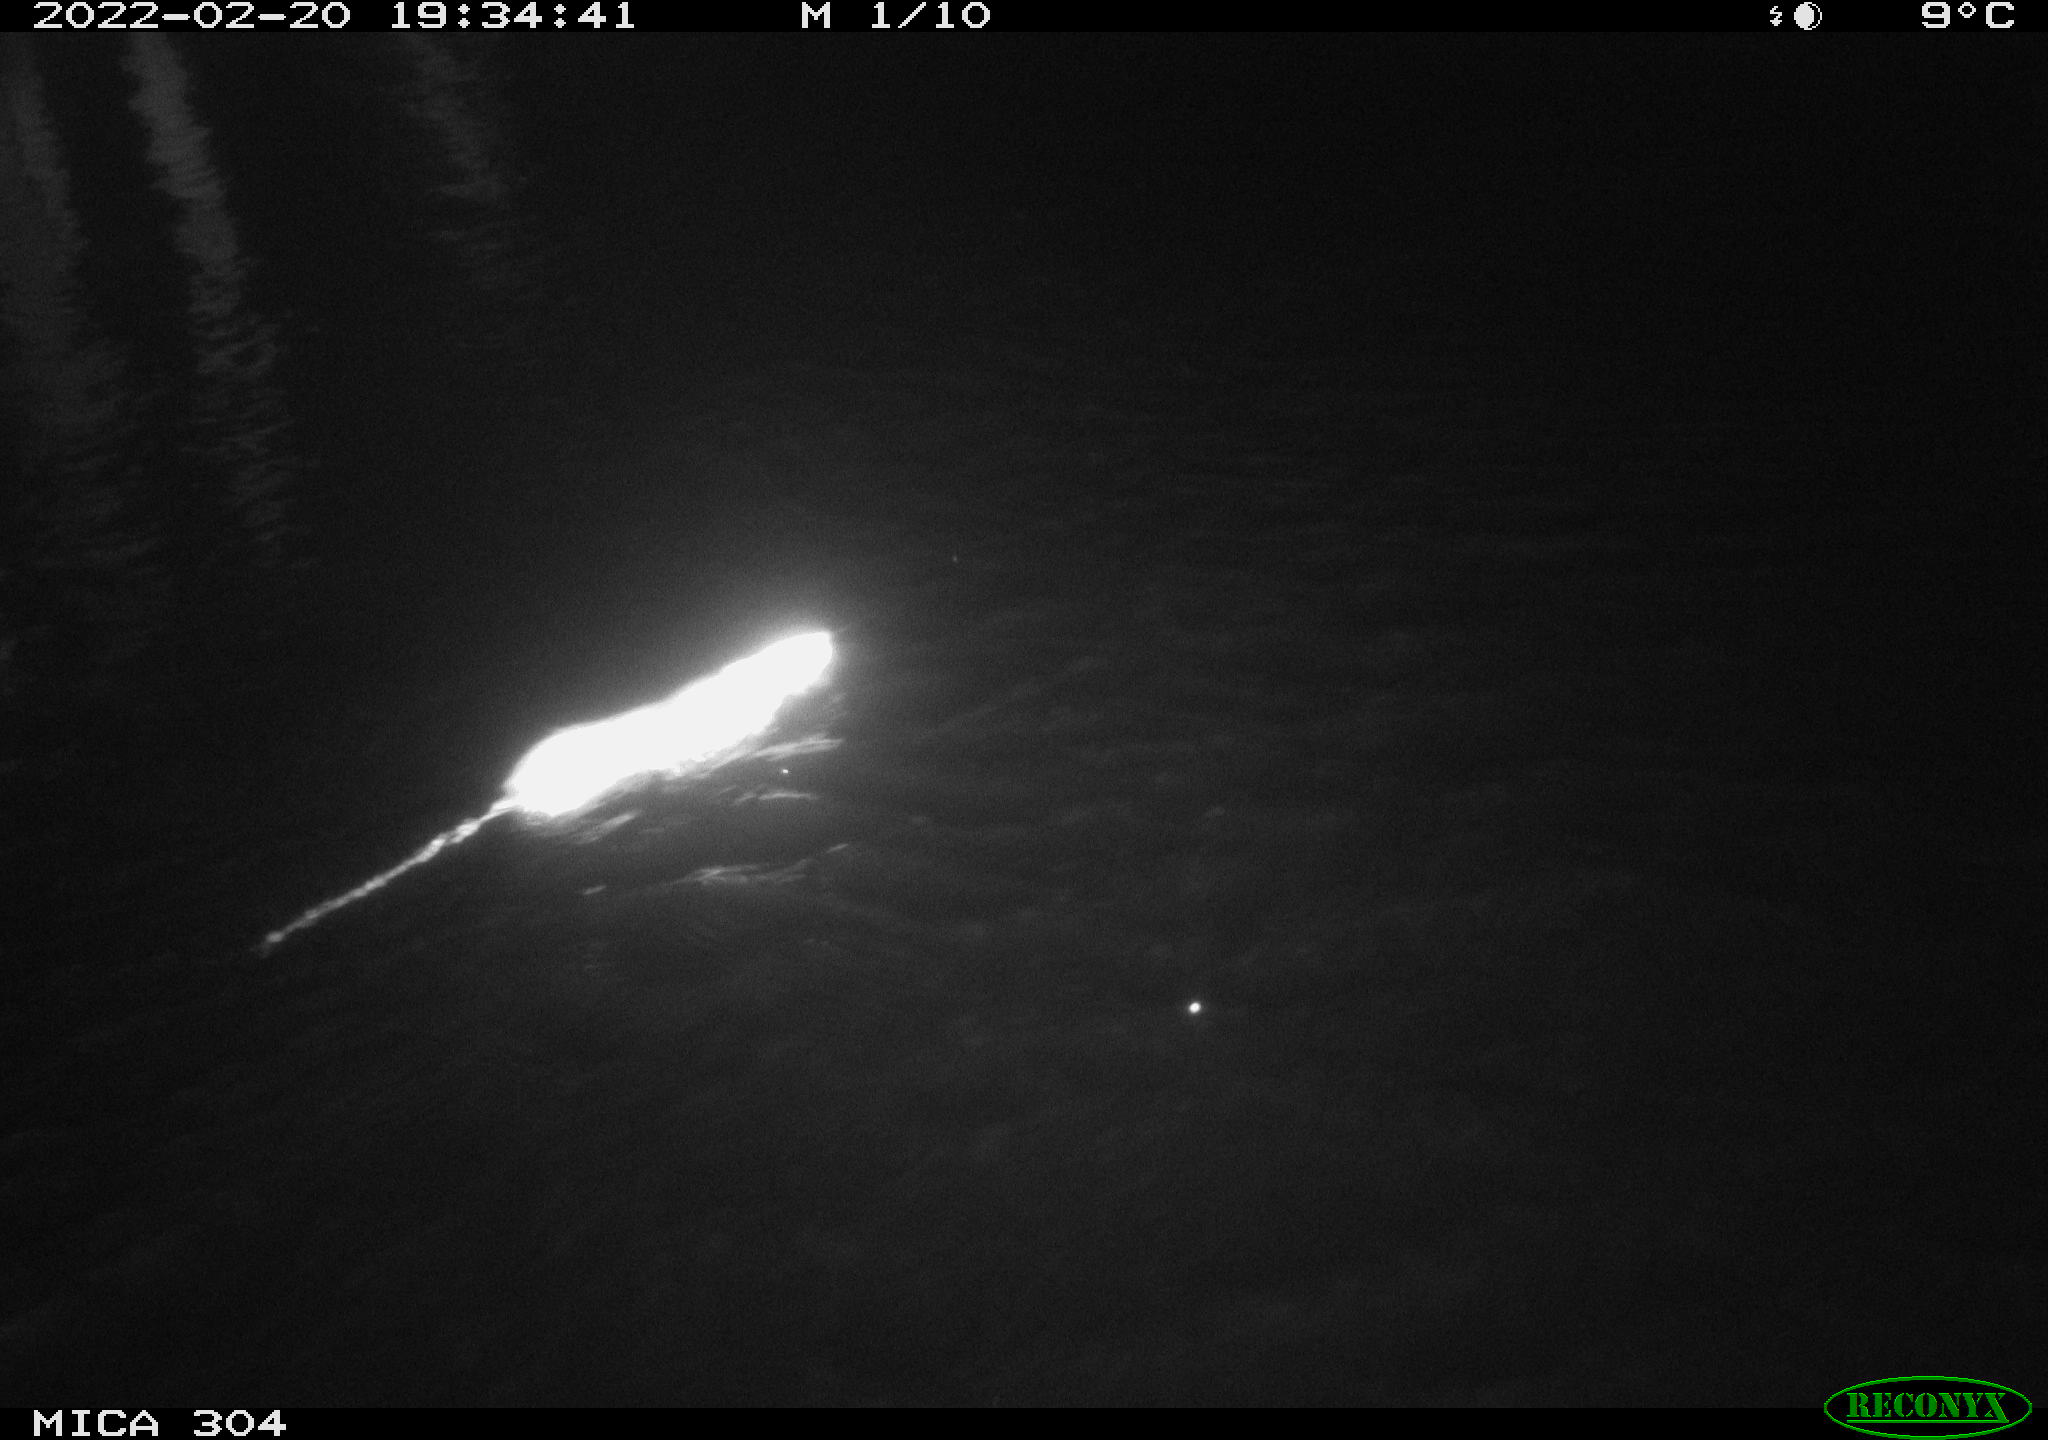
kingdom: Animalia
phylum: Chordata
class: Mammalia
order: Rodentia
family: Muridae
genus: Rattus
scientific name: Rattus norvegicus
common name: Brown rat
